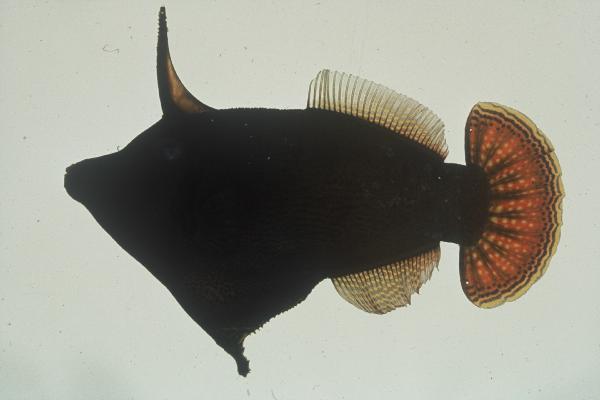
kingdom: Animalia
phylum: Chordata
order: Tetraodontiformes
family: Monacanthidae
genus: Pervagor
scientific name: Pervagor janthinosoma
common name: Blackbar filefish
